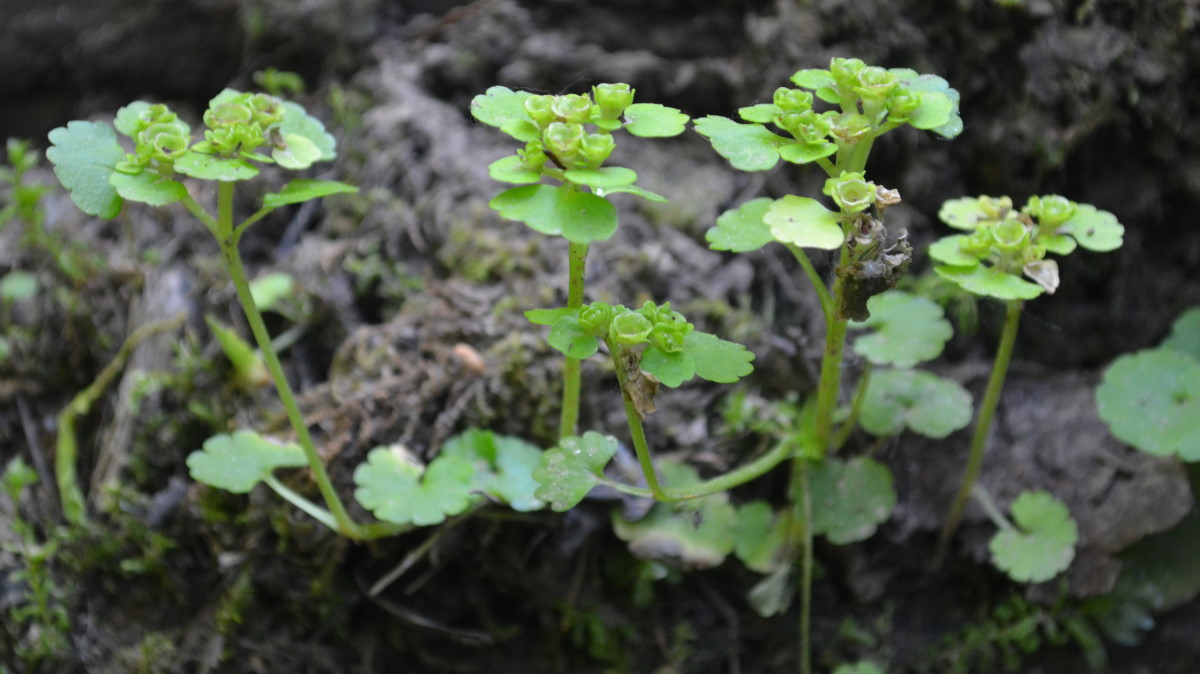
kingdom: Plantae
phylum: Tracheophyta
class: Magnoliopsida
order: Saxifragales
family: Saxifragaceae
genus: Chrysosplenium
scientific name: Chrysosplenium alternifolium
